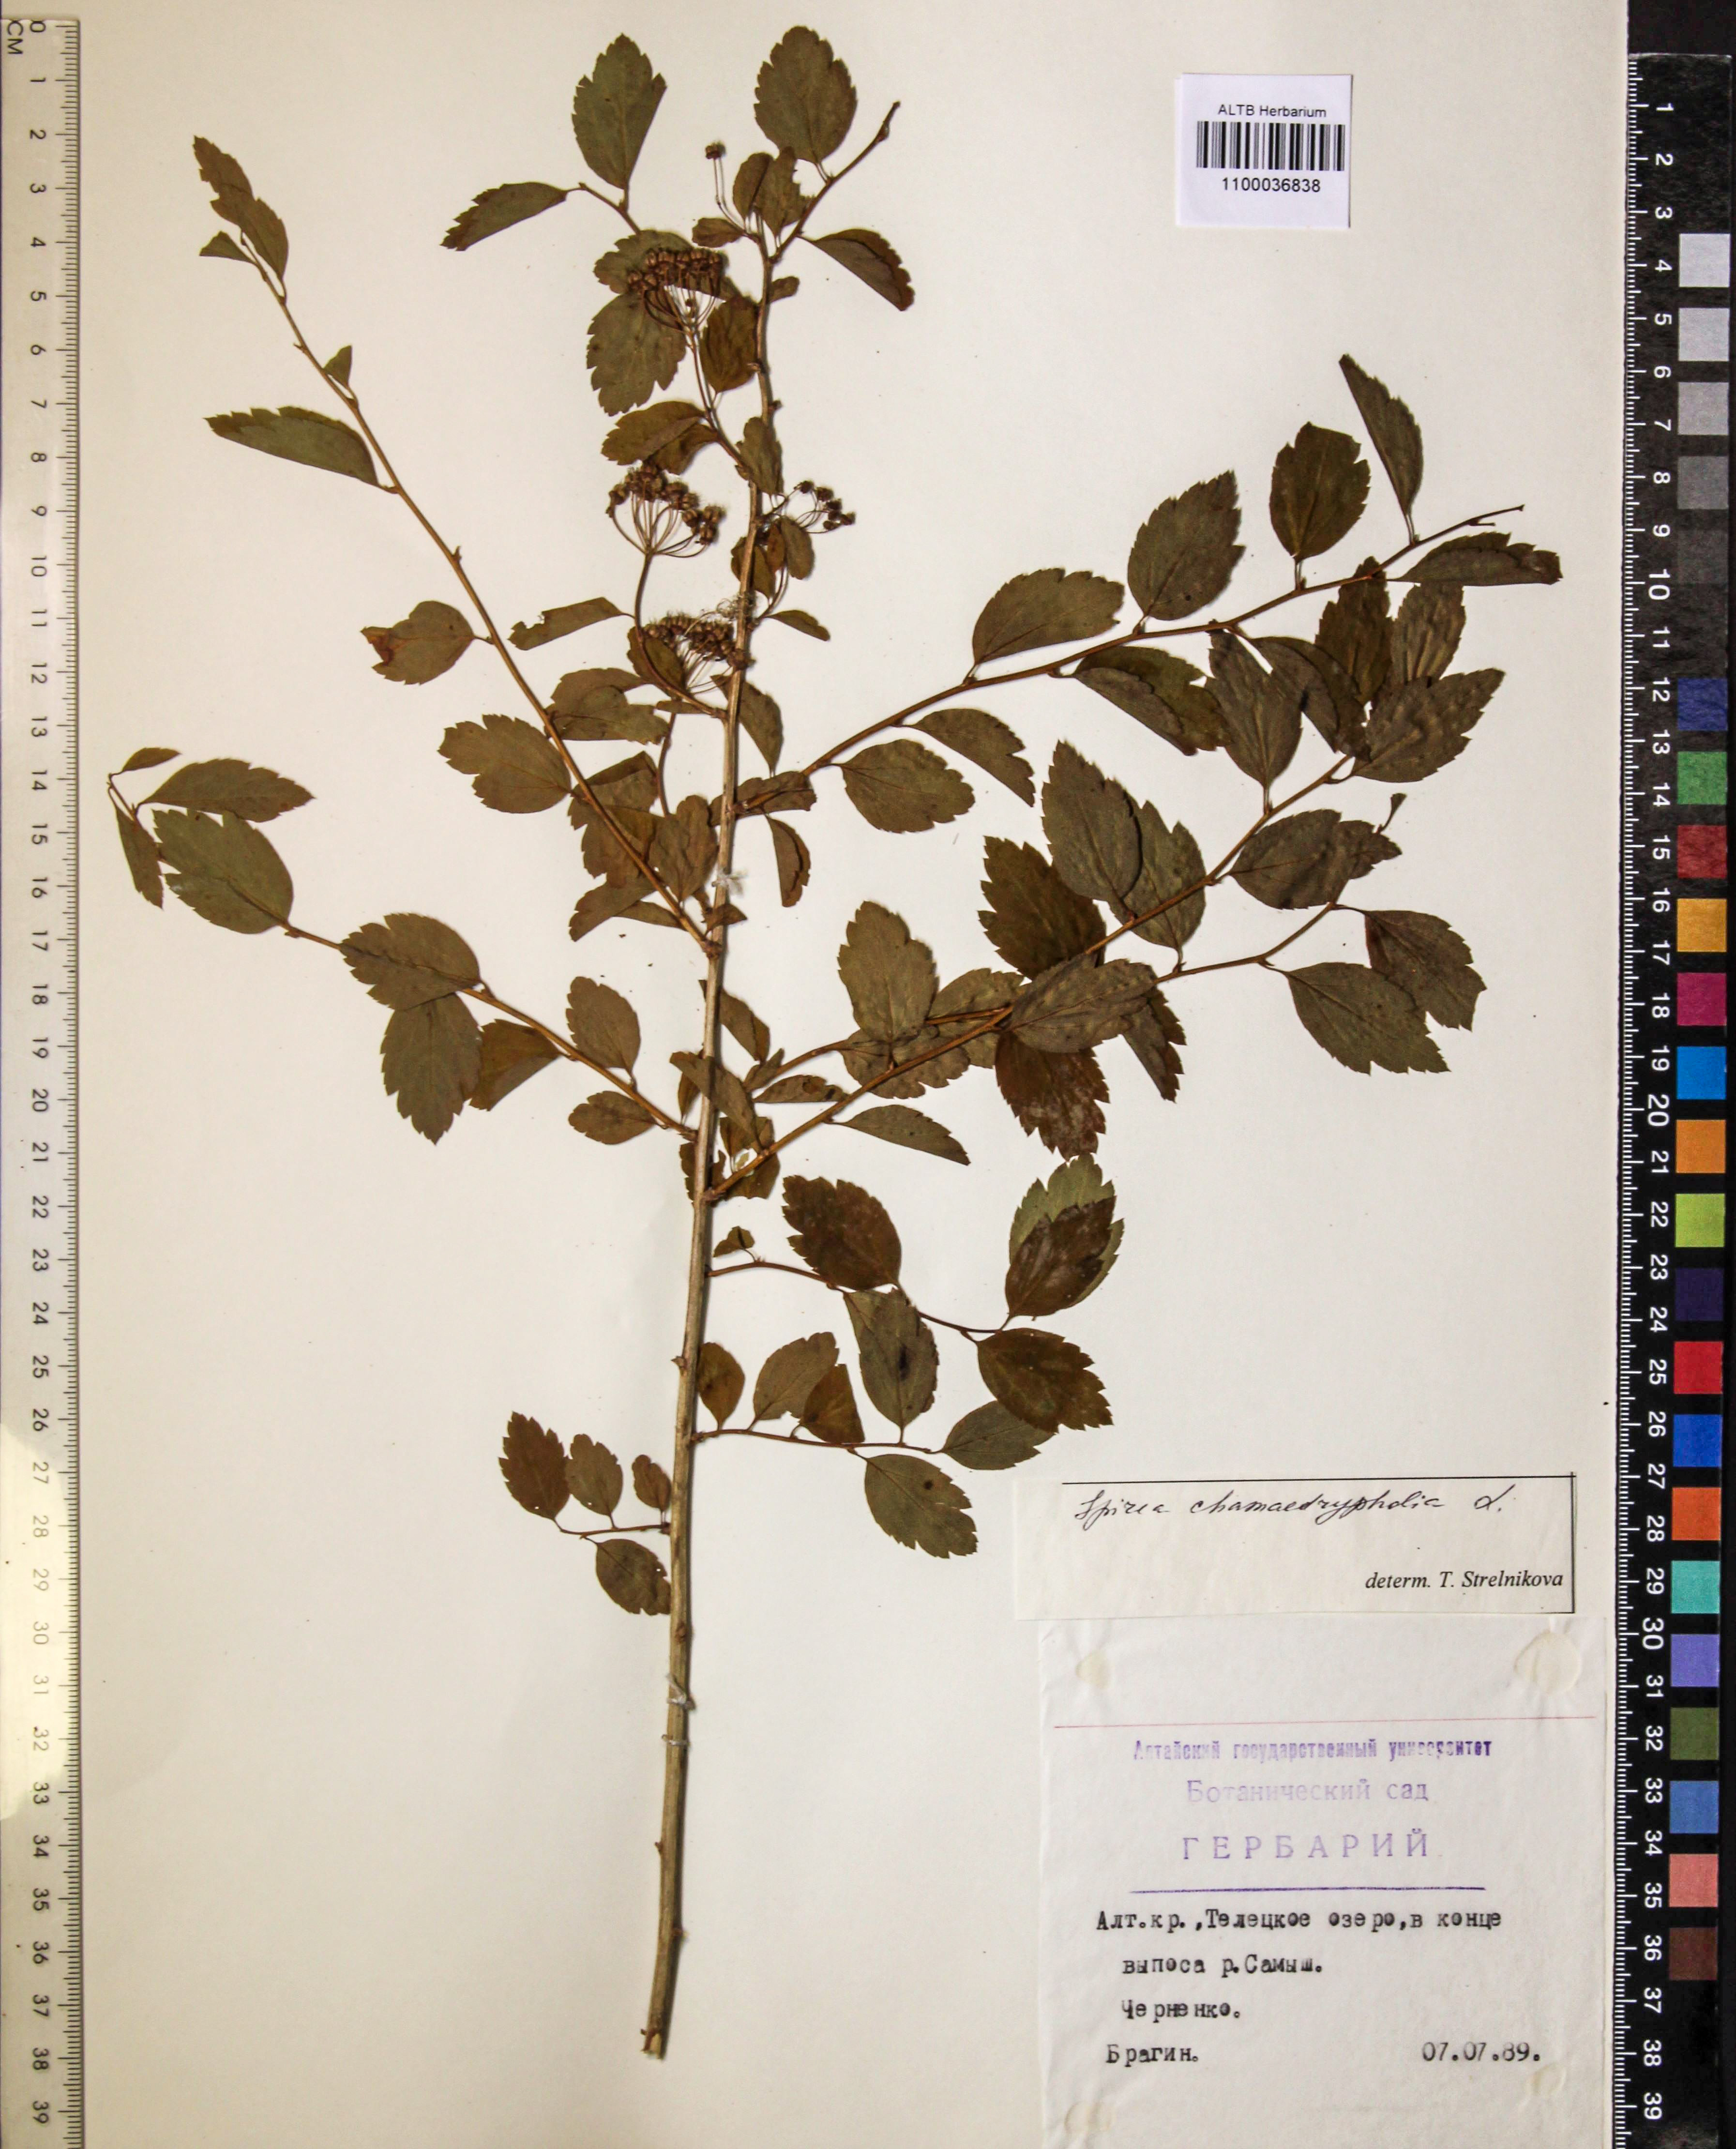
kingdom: Plantae
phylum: Tracheophyta
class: Magnoliopsida
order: Rosales
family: Rosaceae
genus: Spiraea
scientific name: Spiraea chamaedryfolia
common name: Elm-leaved spiraea
